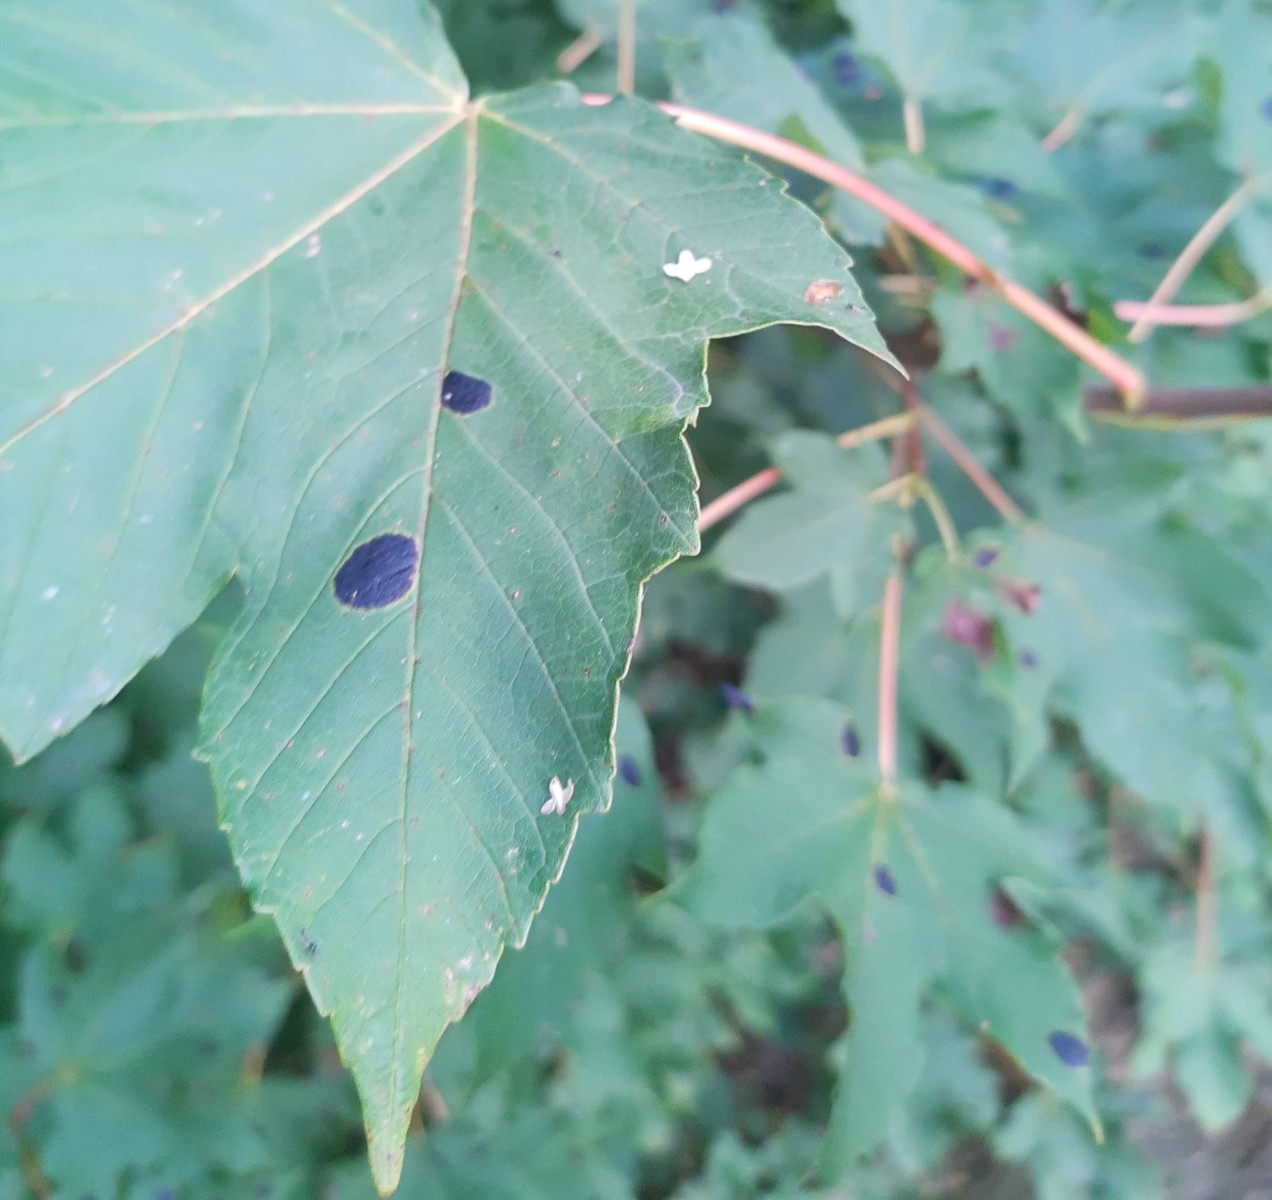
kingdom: Fungi
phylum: Ascomycota
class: Leotiomycetes
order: Rhytismatales
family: Rhytismataceae
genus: Rhytisma
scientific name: Rhytisma acerinum
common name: ahorn-rynkeplet
